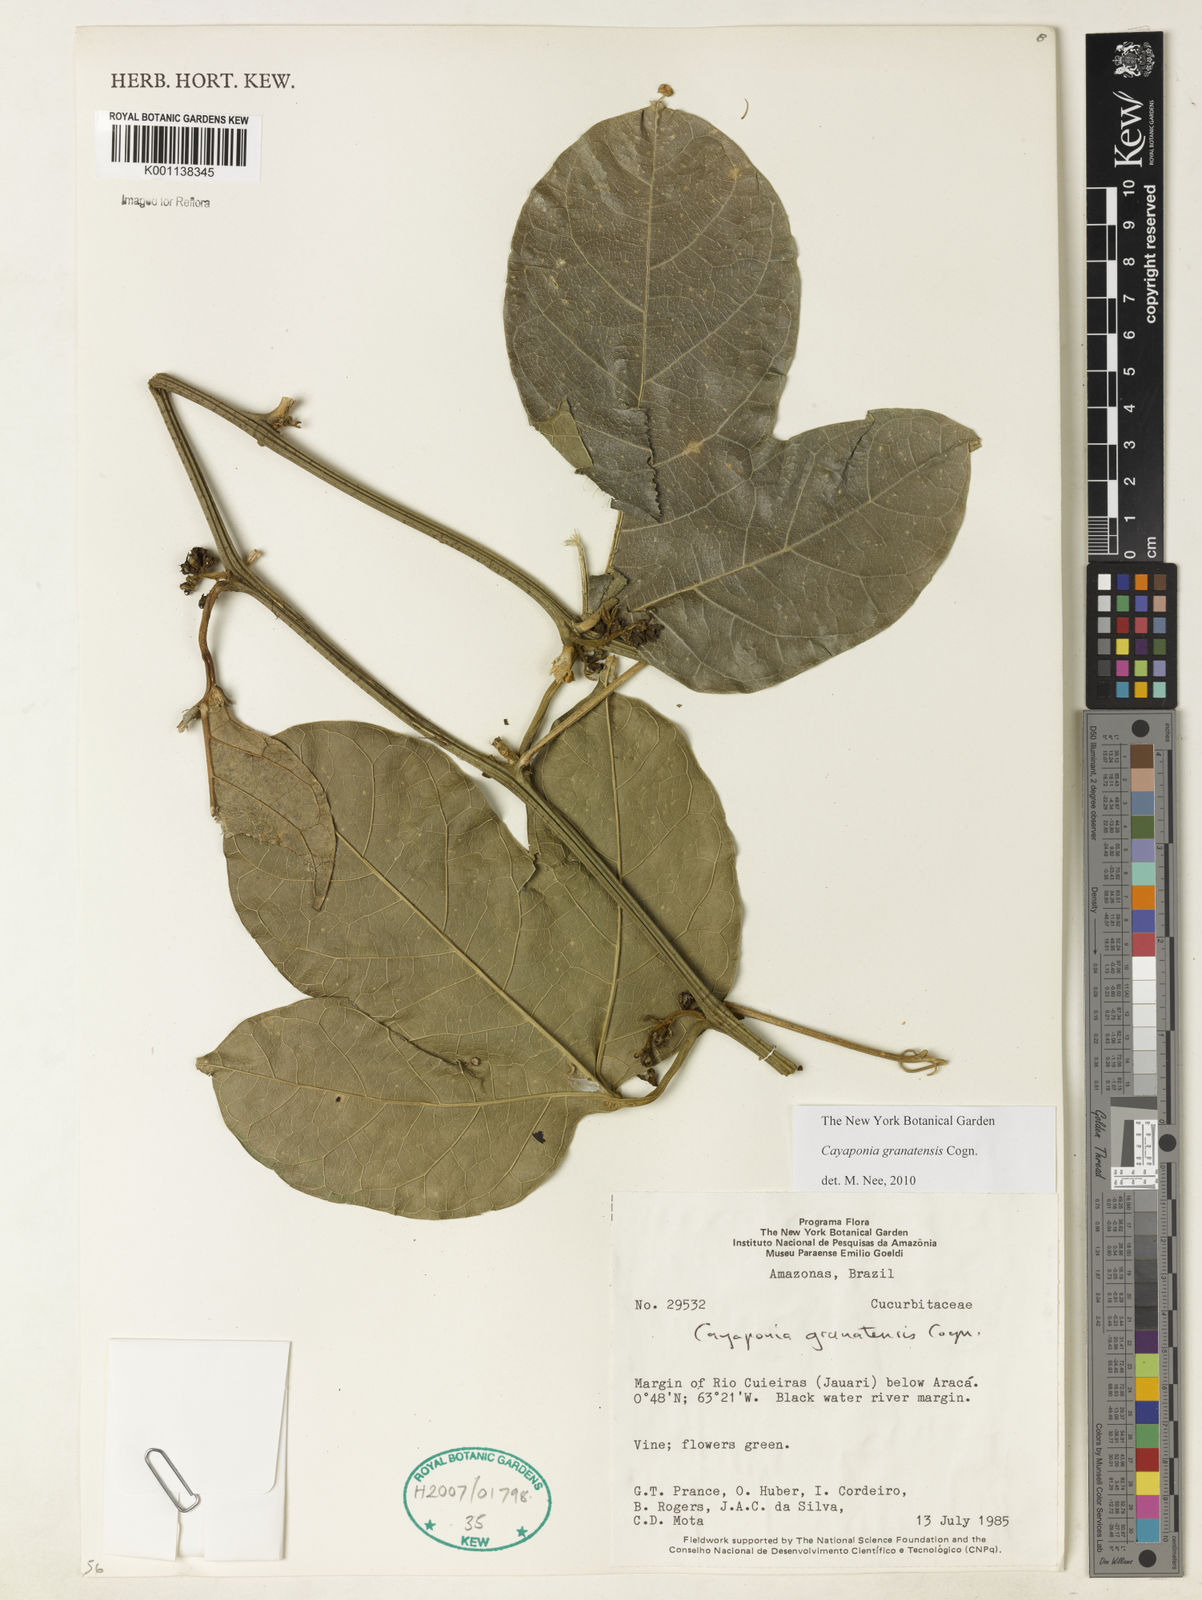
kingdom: Plantae
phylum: Tracheophyta
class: Magnoliopsida
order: Cucurbitales
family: Cucurbitaceae
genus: Cayaponia
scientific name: Cayaponia granatensis
